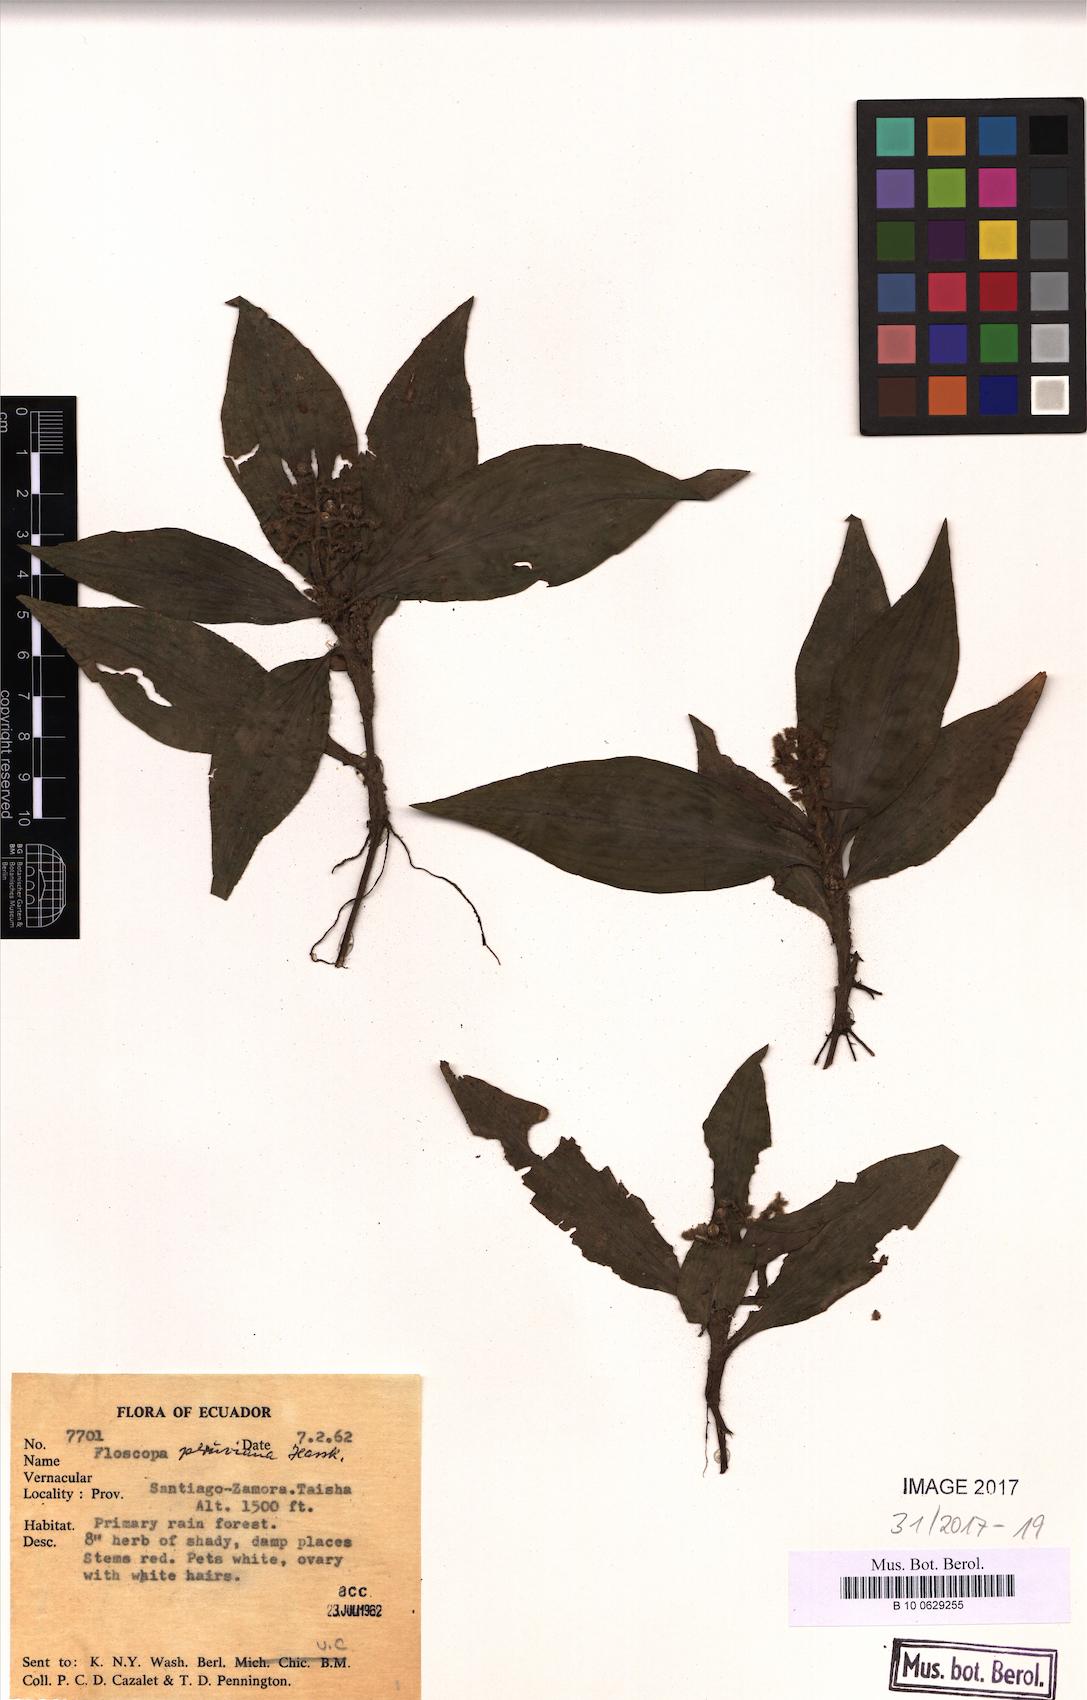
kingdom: Plantae
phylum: Tracheophyta
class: Liliopsida
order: Commelinales
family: Commelinaceae
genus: Floscopa
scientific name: Floscopa peruviana
